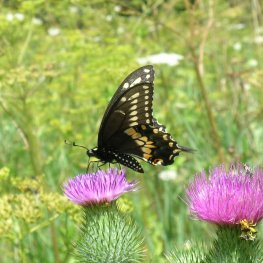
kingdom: Animalia
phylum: Arthropoda
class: Insecta
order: Lepidoptera
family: Papilionidae
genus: Papilio
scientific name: Papilio polyxenes
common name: Black Swallowtail
